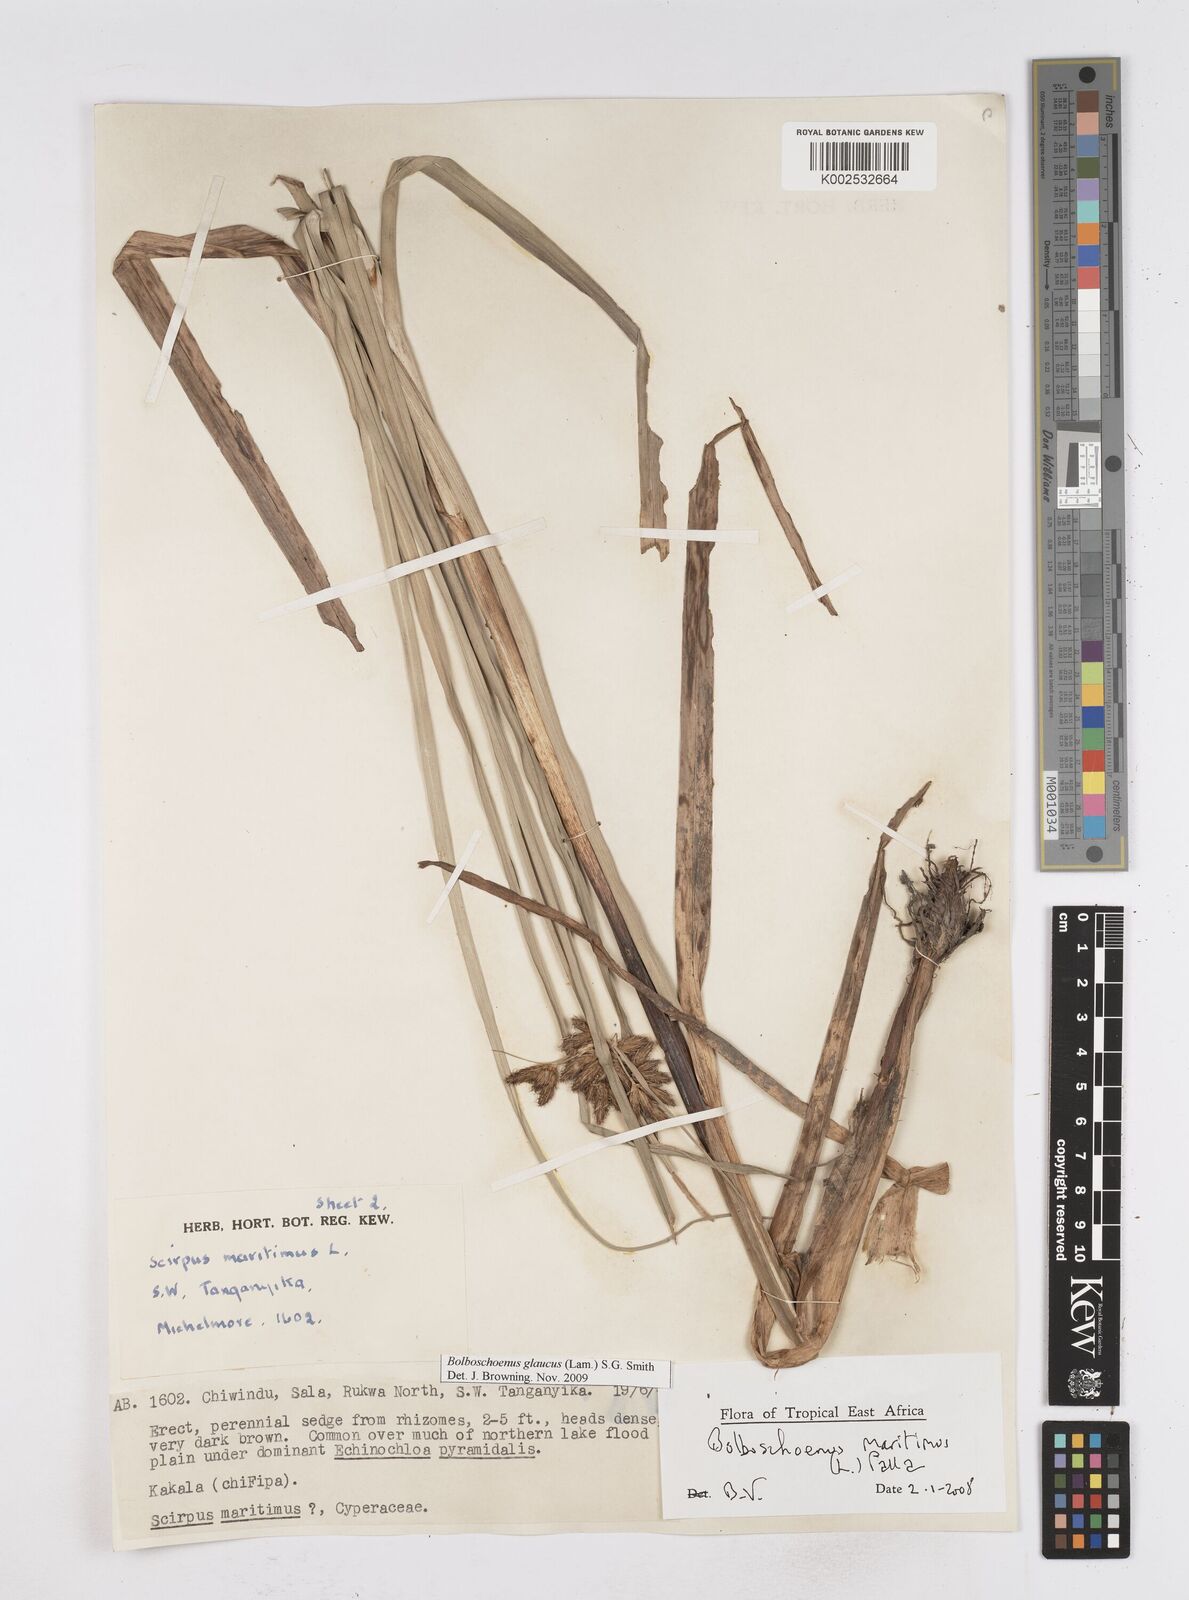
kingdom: Plantae
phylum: Tracheophyta
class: Liliopsida
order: Poales
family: Cyperaceae
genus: Bolboschoenus
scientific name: Bolboschoenus glaucus
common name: Tuberous bulrush
